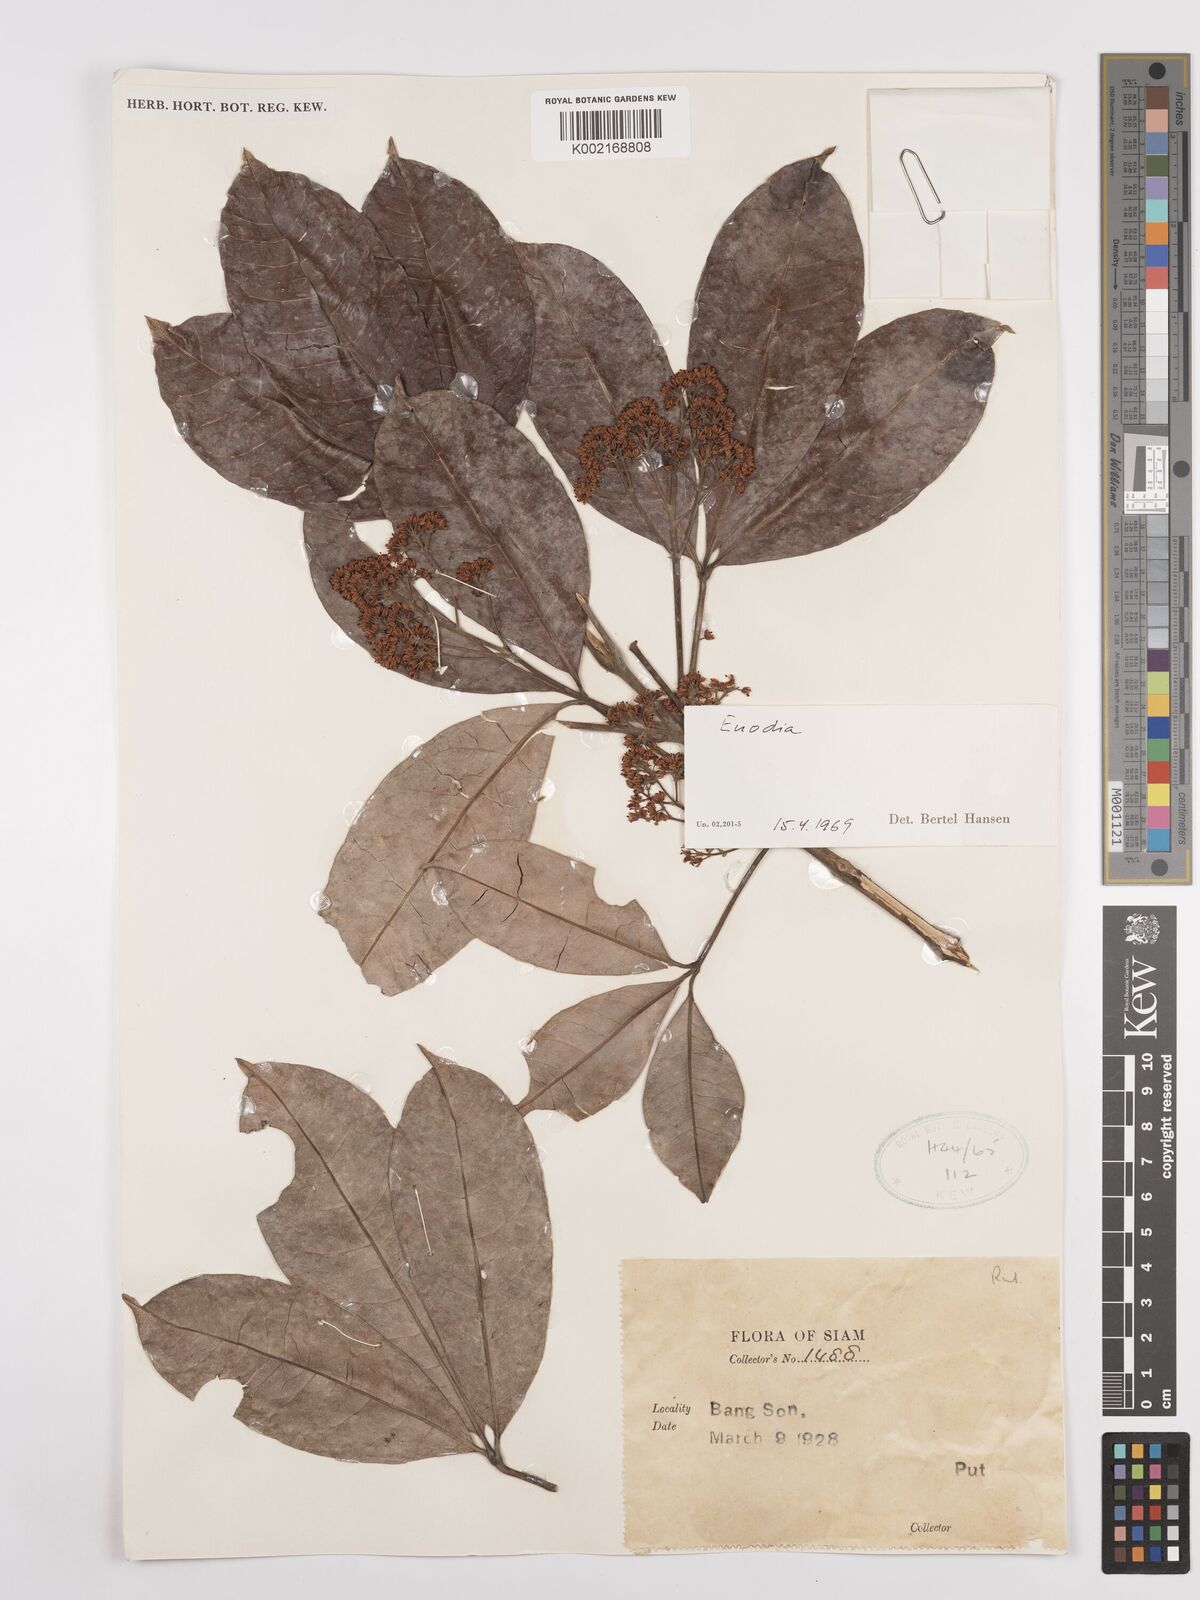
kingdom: Plantae
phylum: Tracheophyta
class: Magnoliopsida
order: Sapindales
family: Rutaceae
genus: Euodia
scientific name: Euodia
